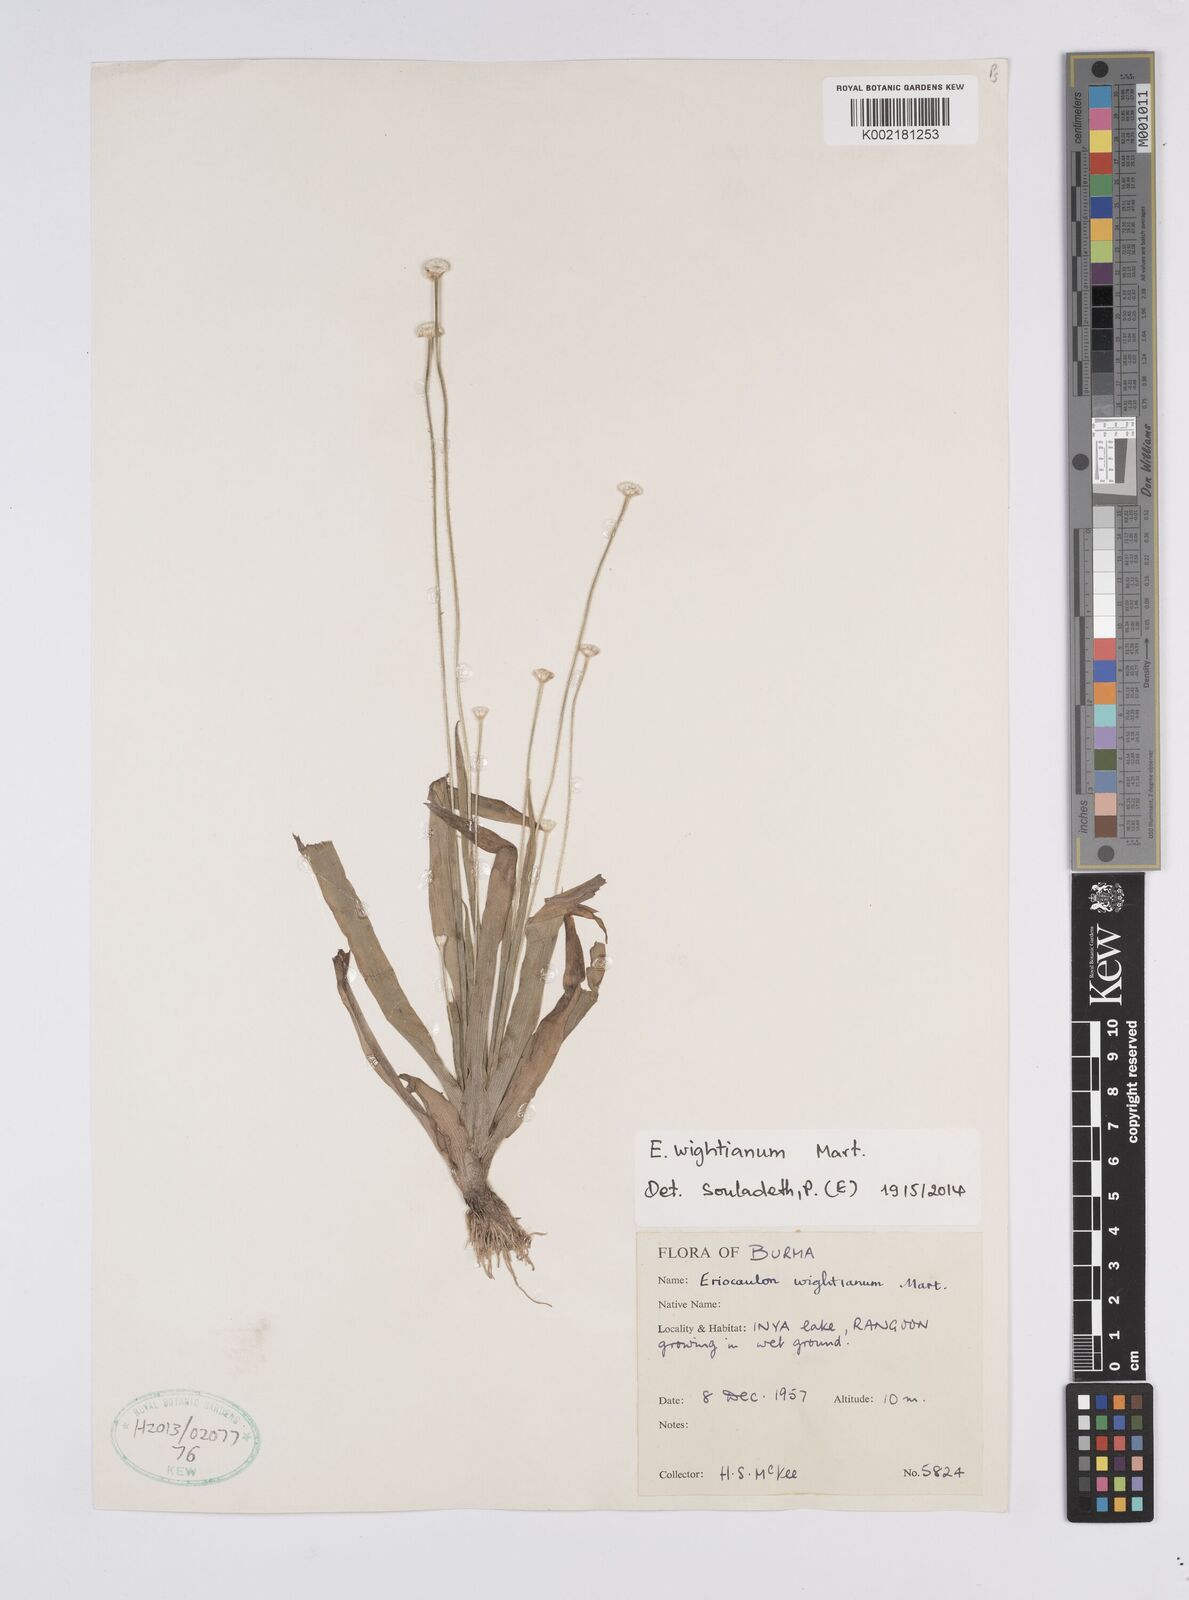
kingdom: Plantae
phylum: Tracheophyta
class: Liliopsida
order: Poales
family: Eriocaulaceae
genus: Eriocaulon
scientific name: Eriocaulon wightianum
